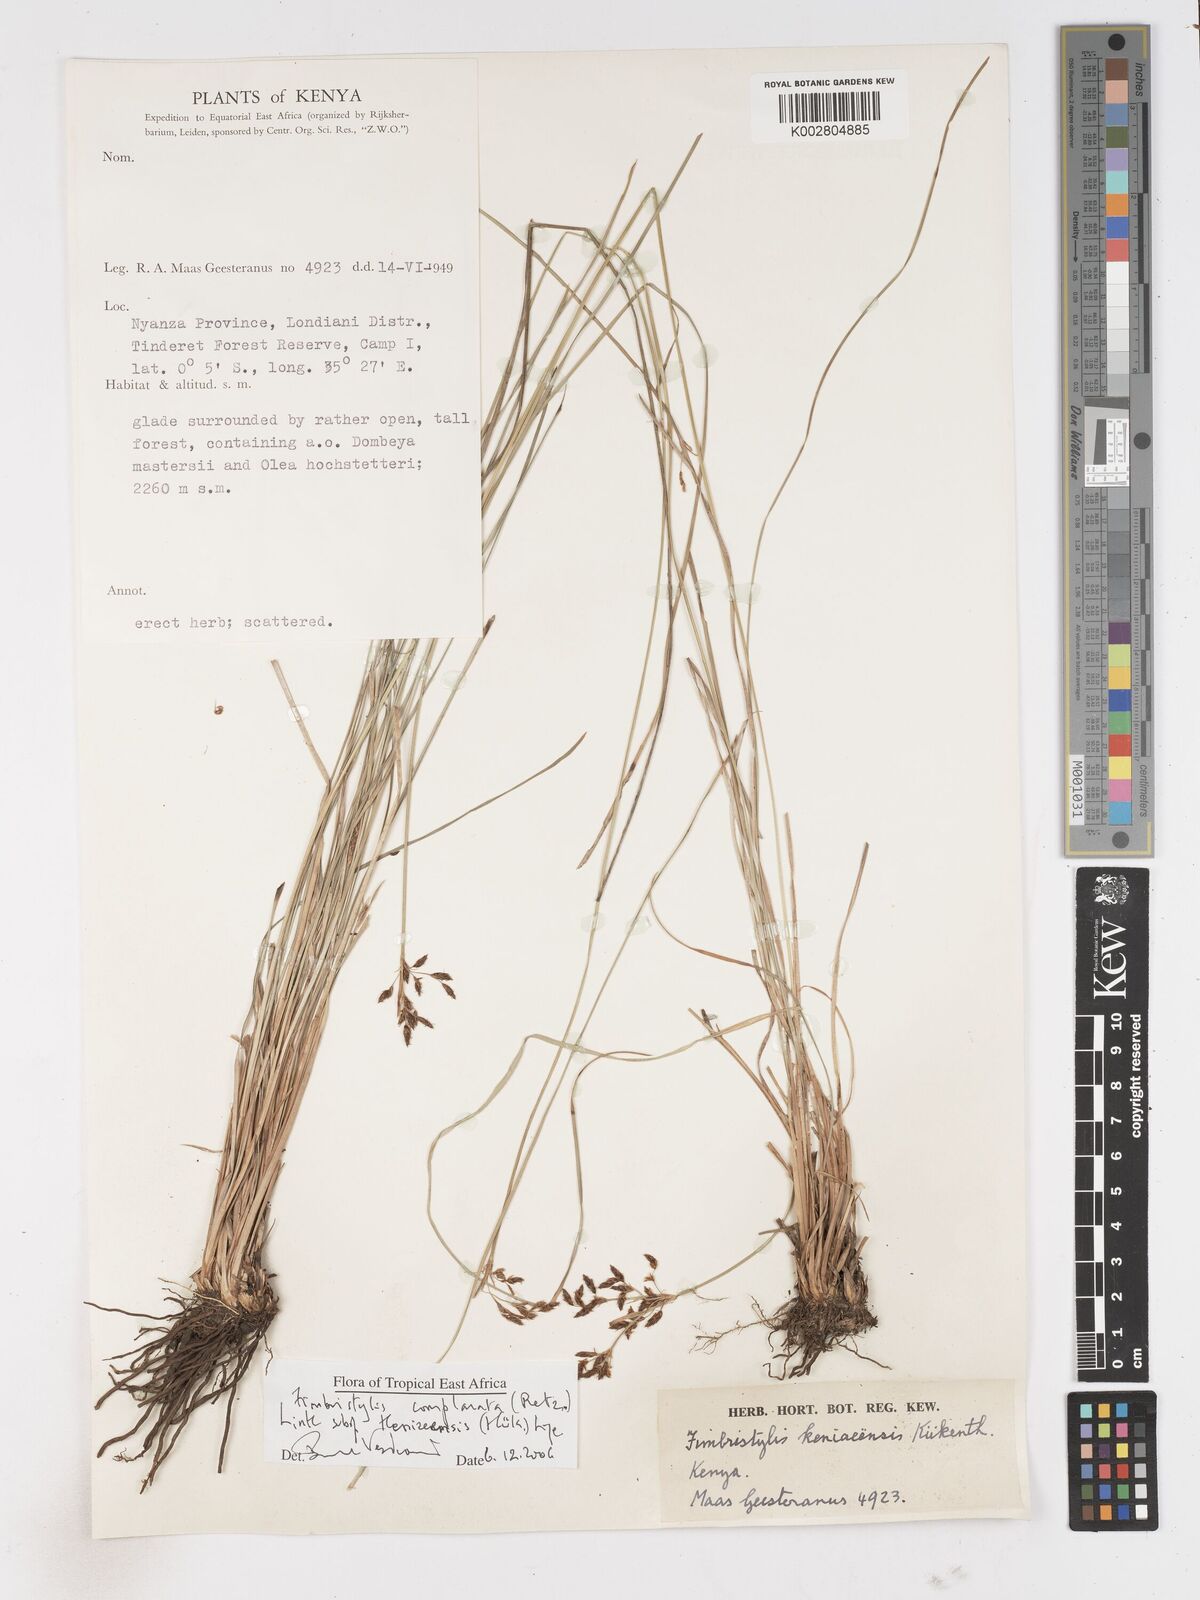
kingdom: Plantae
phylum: Tracheophyta
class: Liliopsida
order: Poales
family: Cyperaceae
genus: Fimbristylis
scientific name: Fimbristylis complanata
